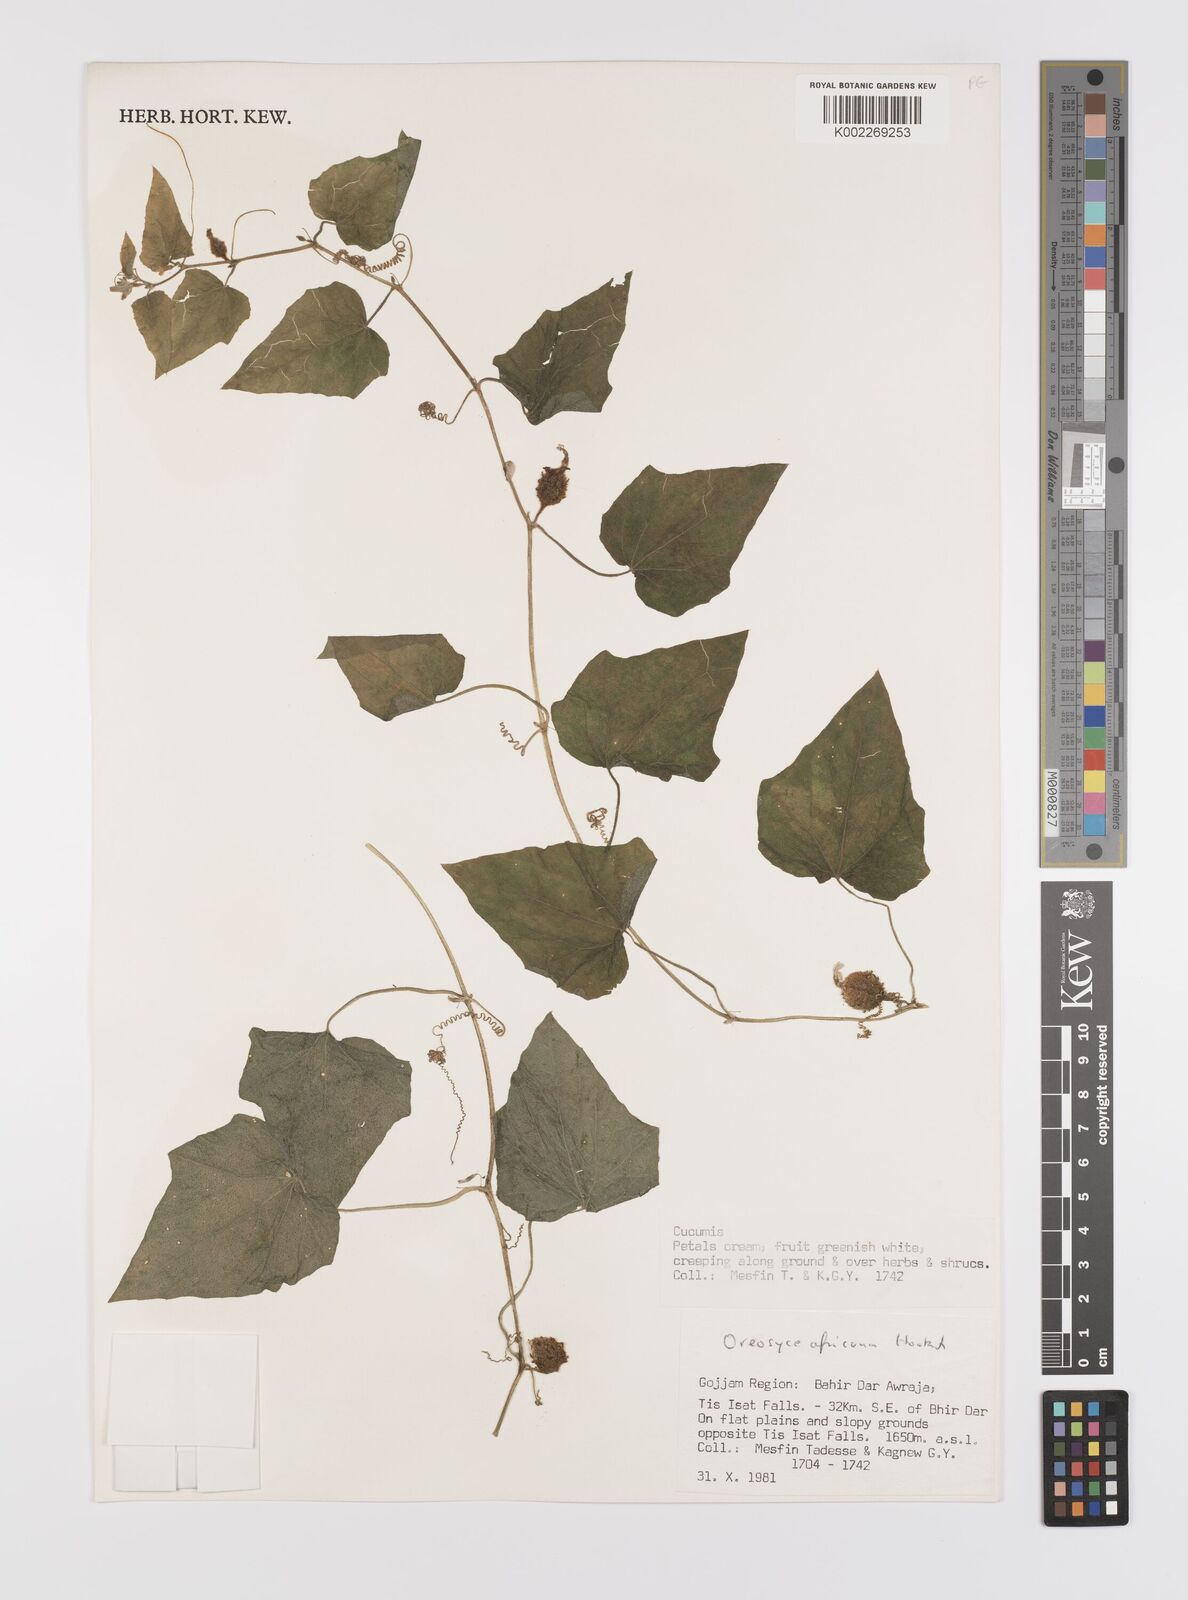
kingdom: Plantae
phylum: Tracheophyta
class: Magnoliopsida
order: Cucurbitales
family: Cucurbitaceae
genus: Cucumis
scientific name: Cucumis oreosyce
